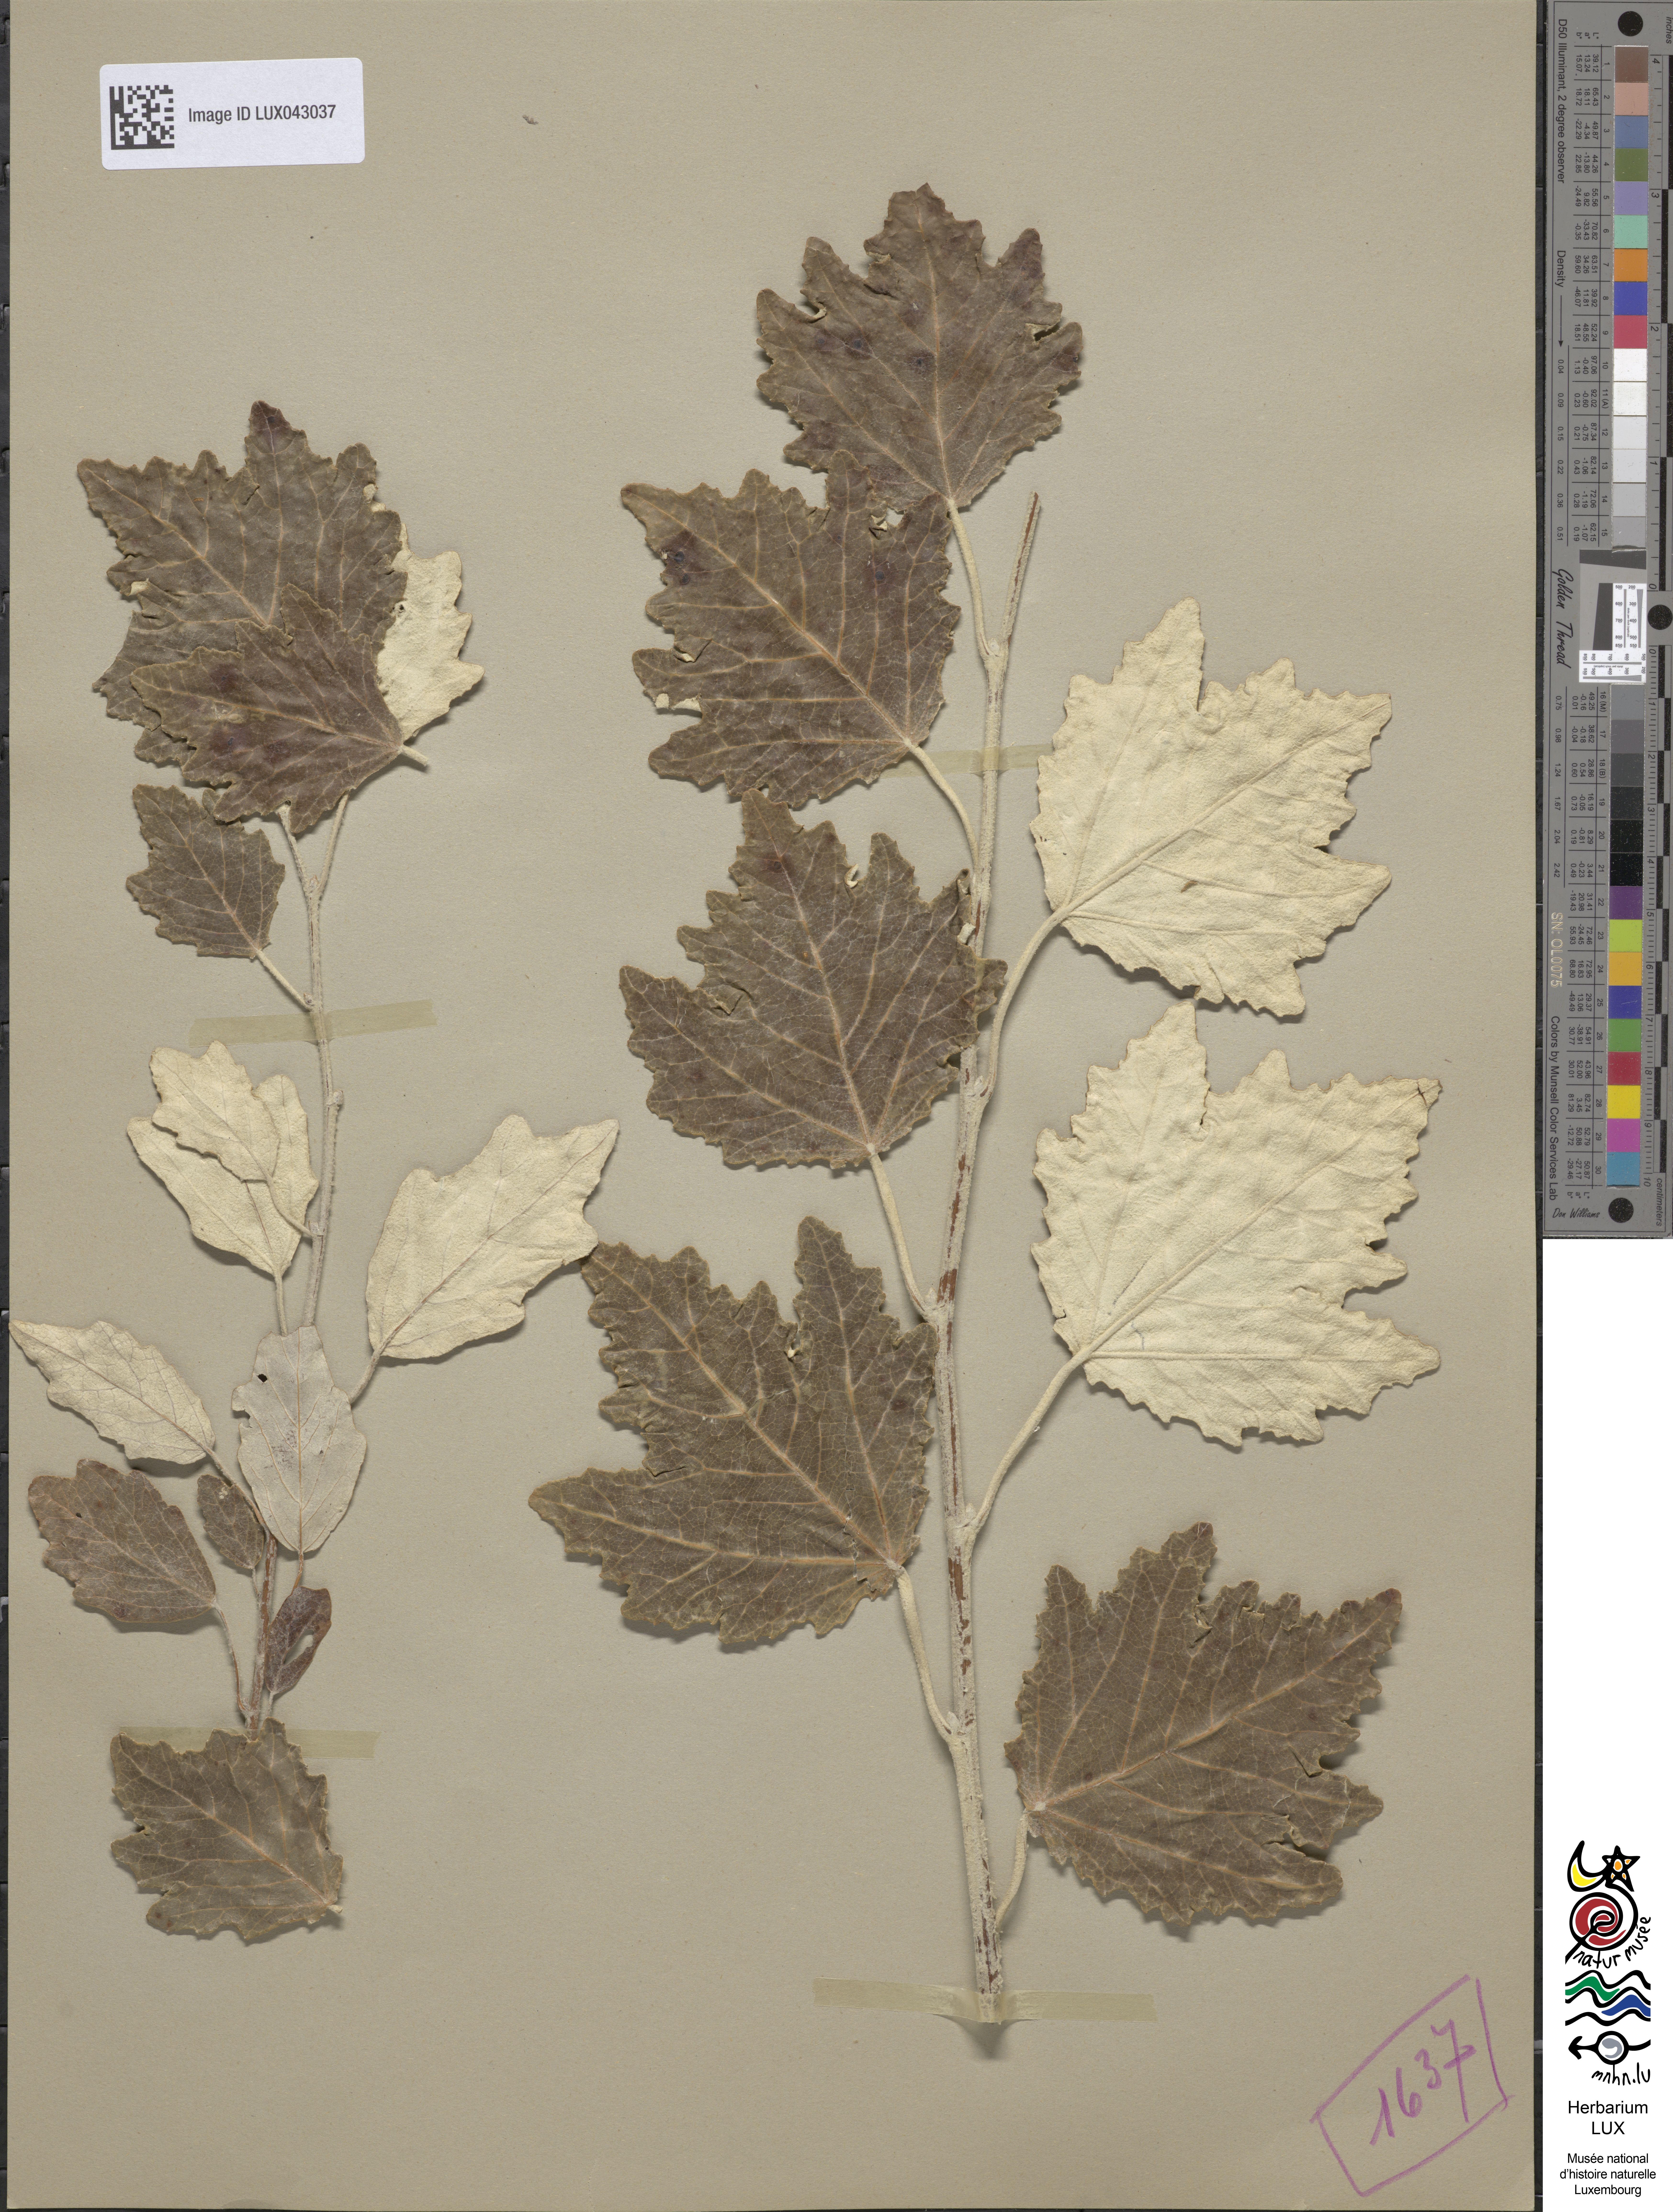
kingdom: Plantae
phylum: Tracheophyta
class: Magnoliopsida
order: Malpighiales
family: Salicaceae
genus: Populus
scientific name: Populus alba
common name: White poplar
